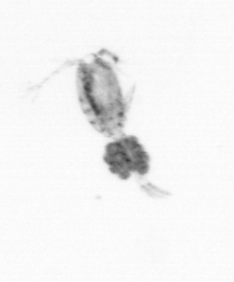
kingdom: Animalia
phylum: Arthropoda
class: Copepoda
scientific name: Copepoda
